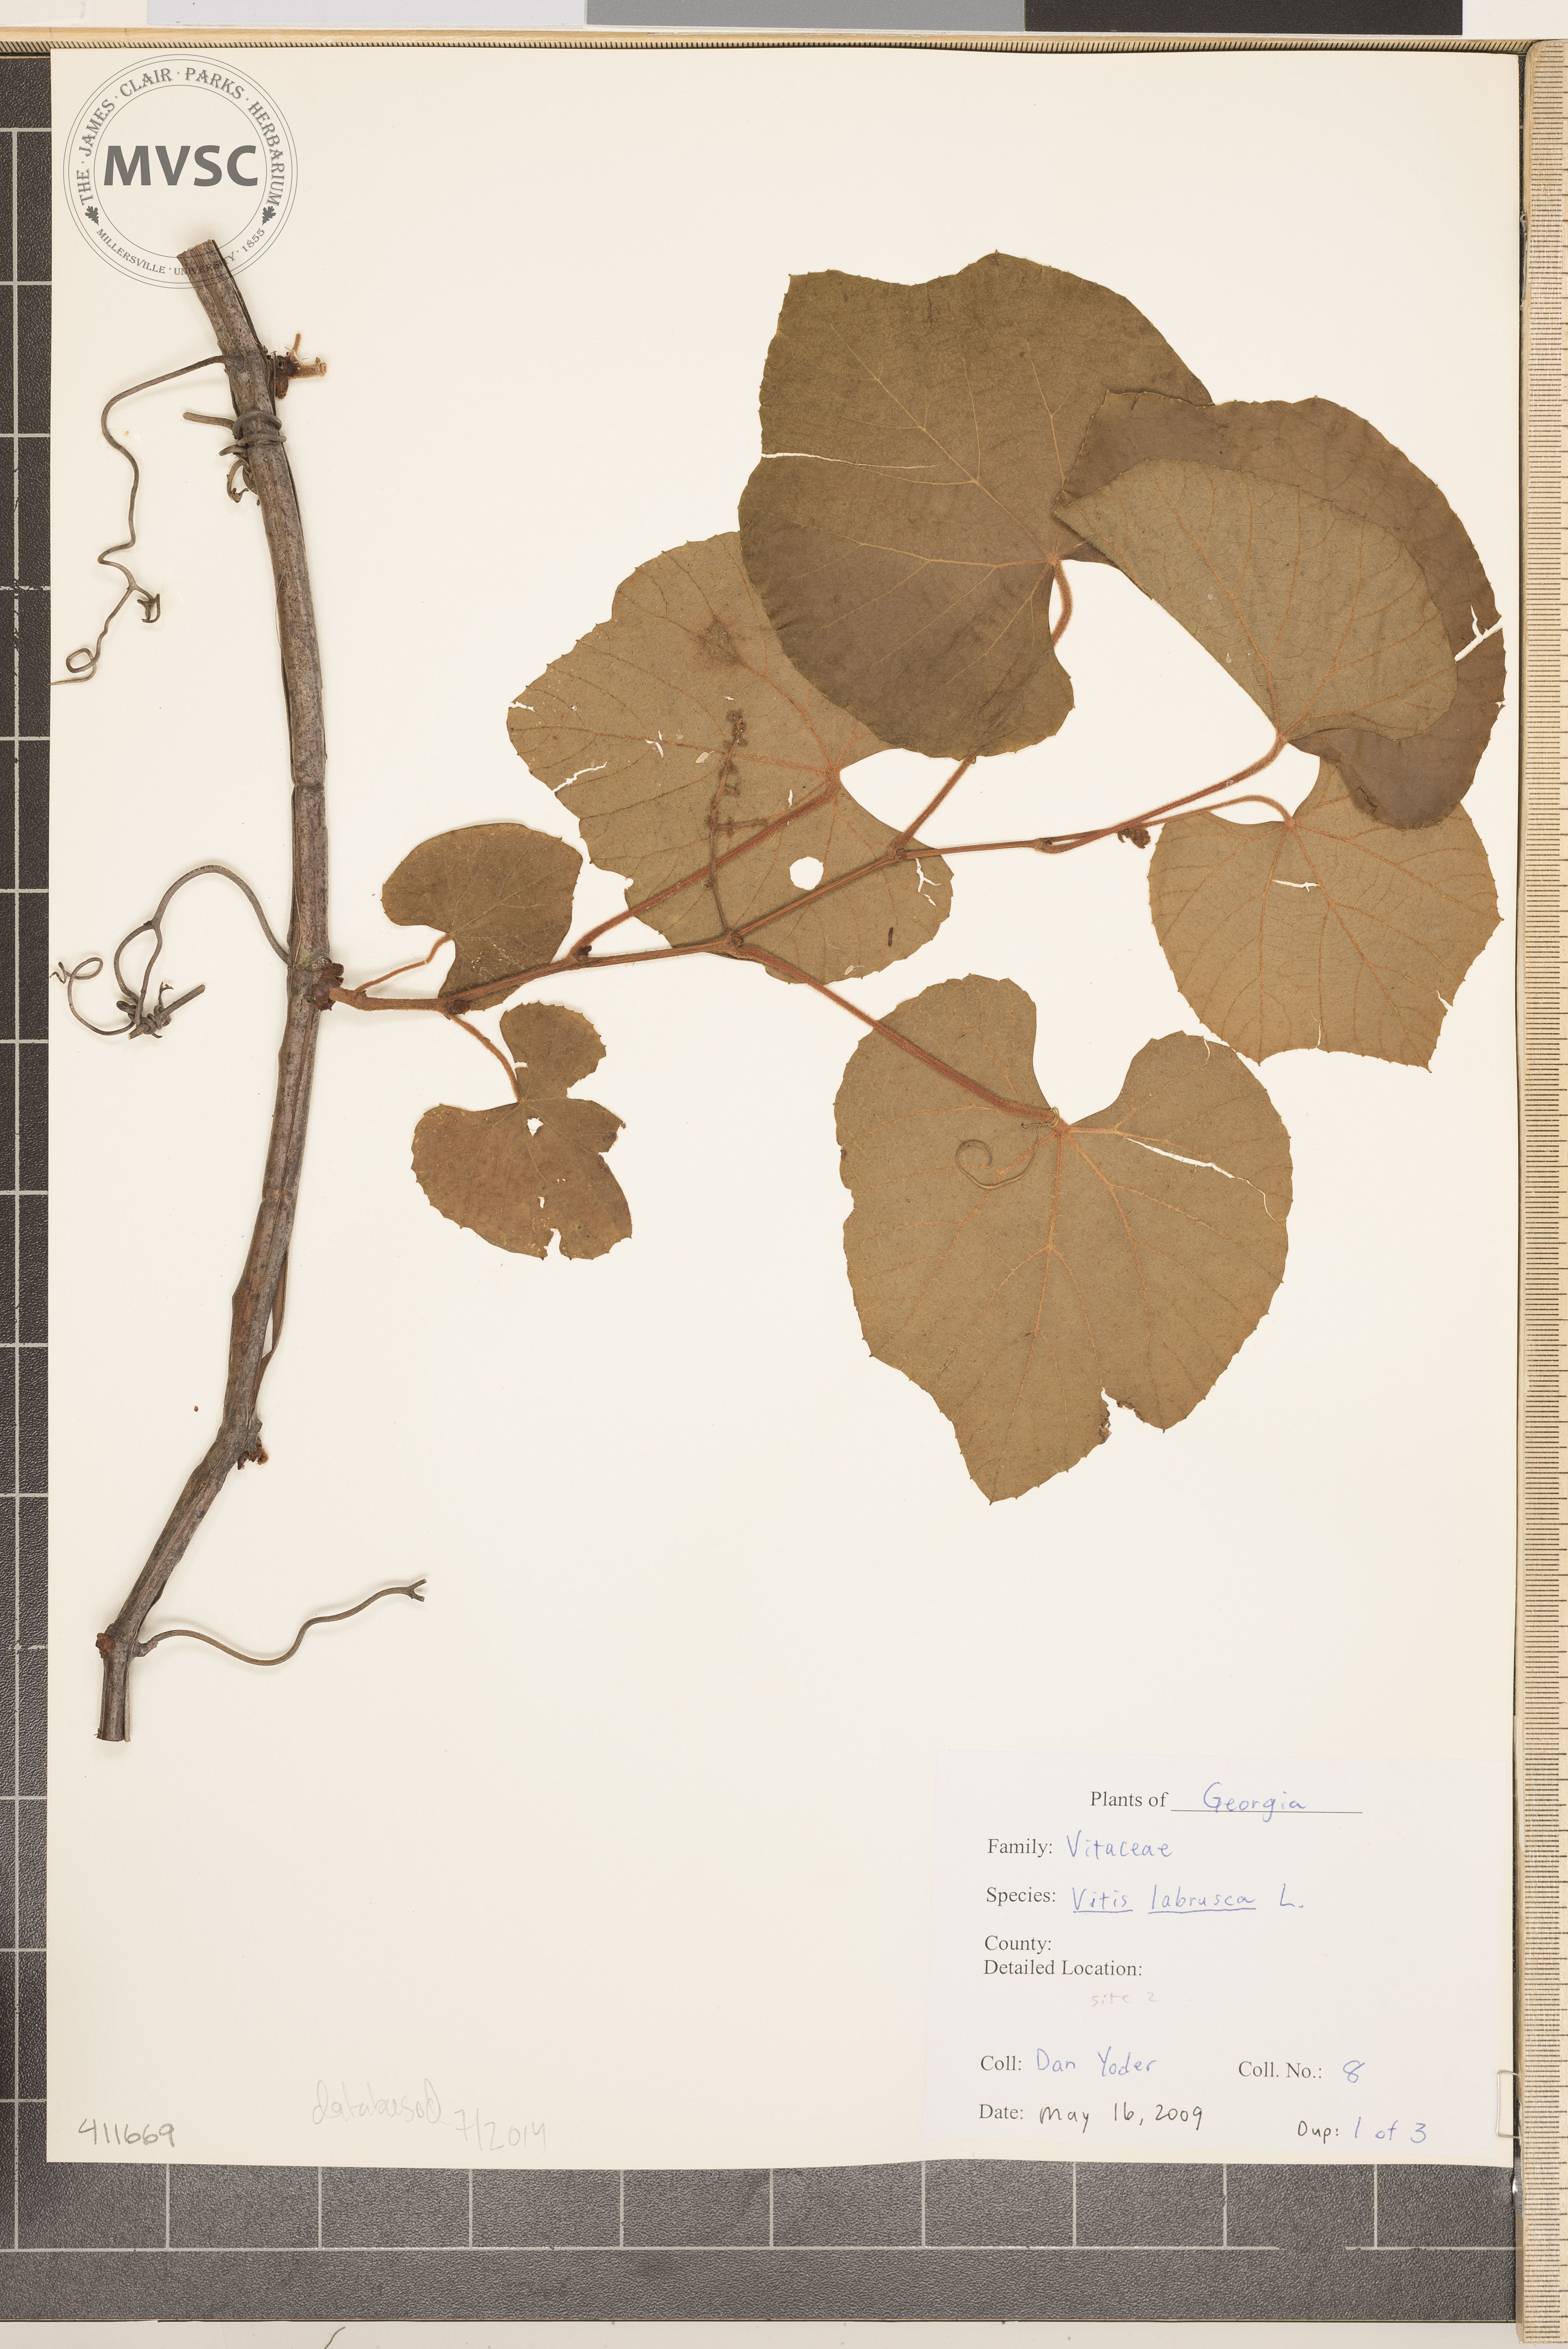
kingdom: Plantae
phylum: Tracheophyta
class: Magnoliopsida
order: Vitales
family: Vitaceae
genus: Vitis
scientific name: Vitis labrusca
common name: Fox grape
